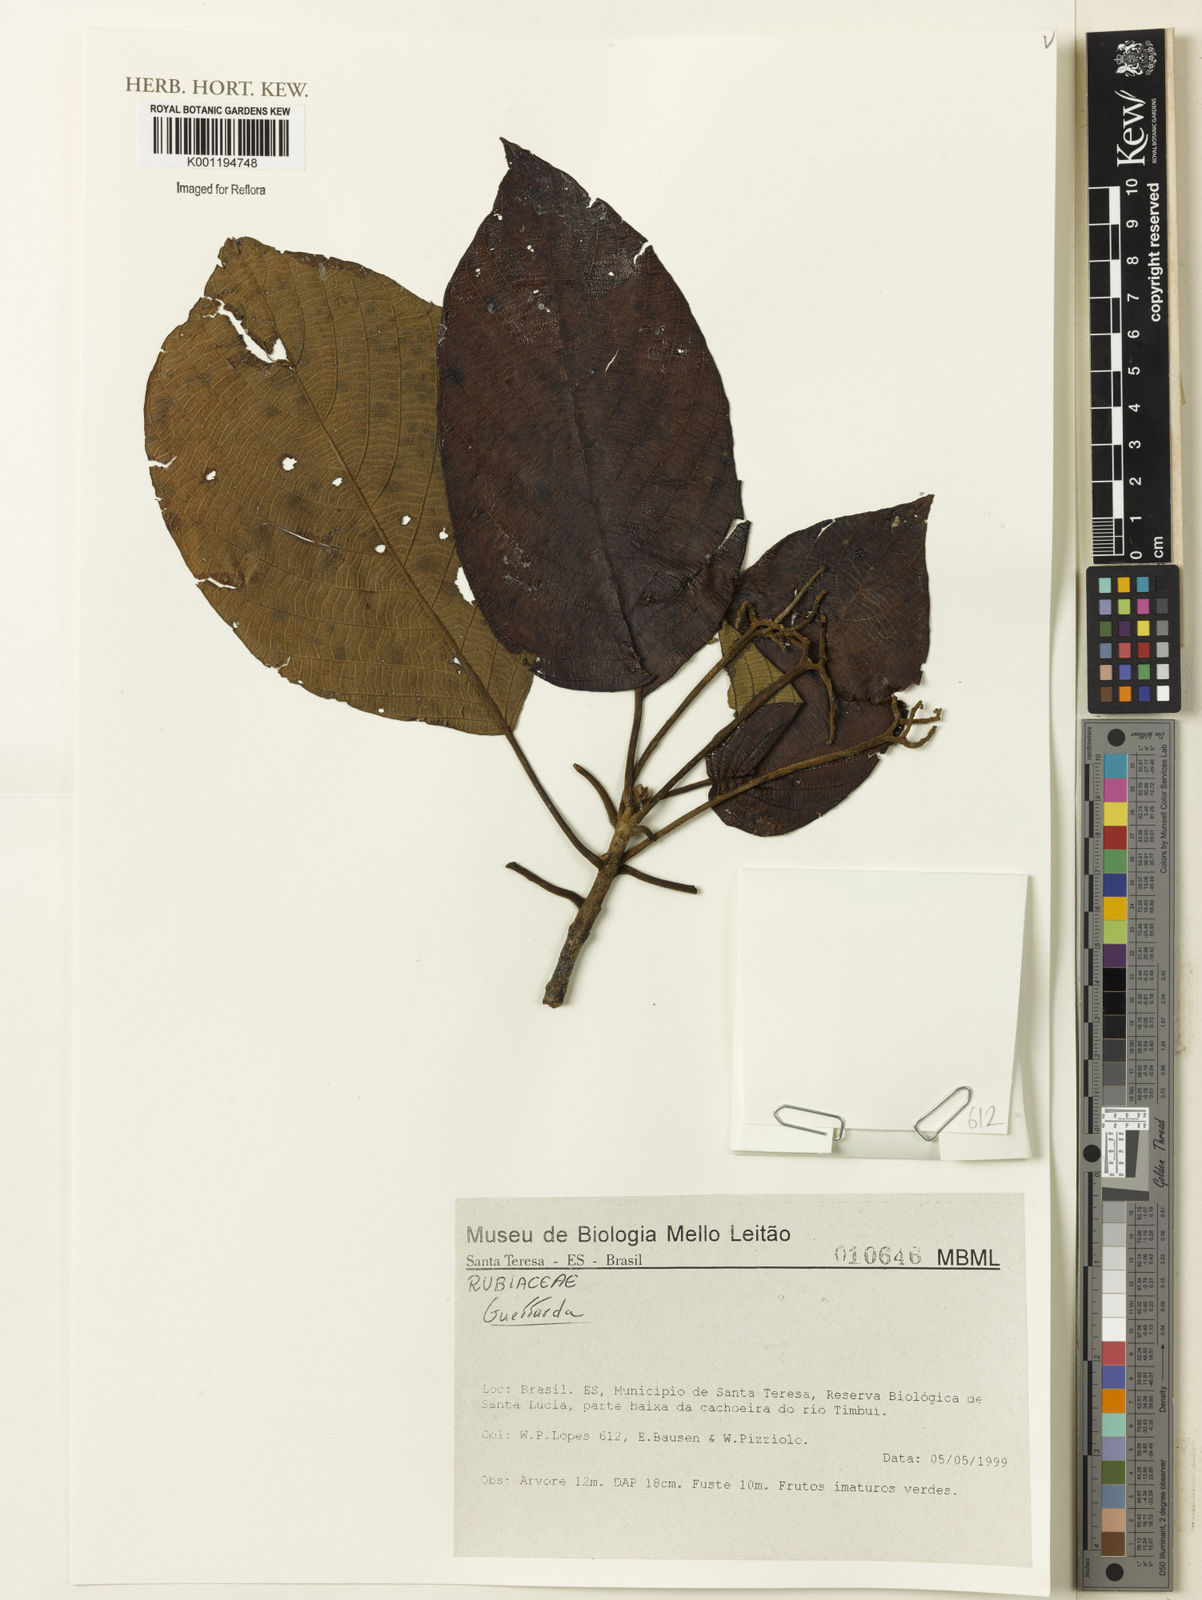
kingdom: Plantae
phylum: Tracheophyta
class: Magnoliopsida
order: Gentianales
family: Rubiaceae
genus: Guettarda
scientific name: Guettarda
